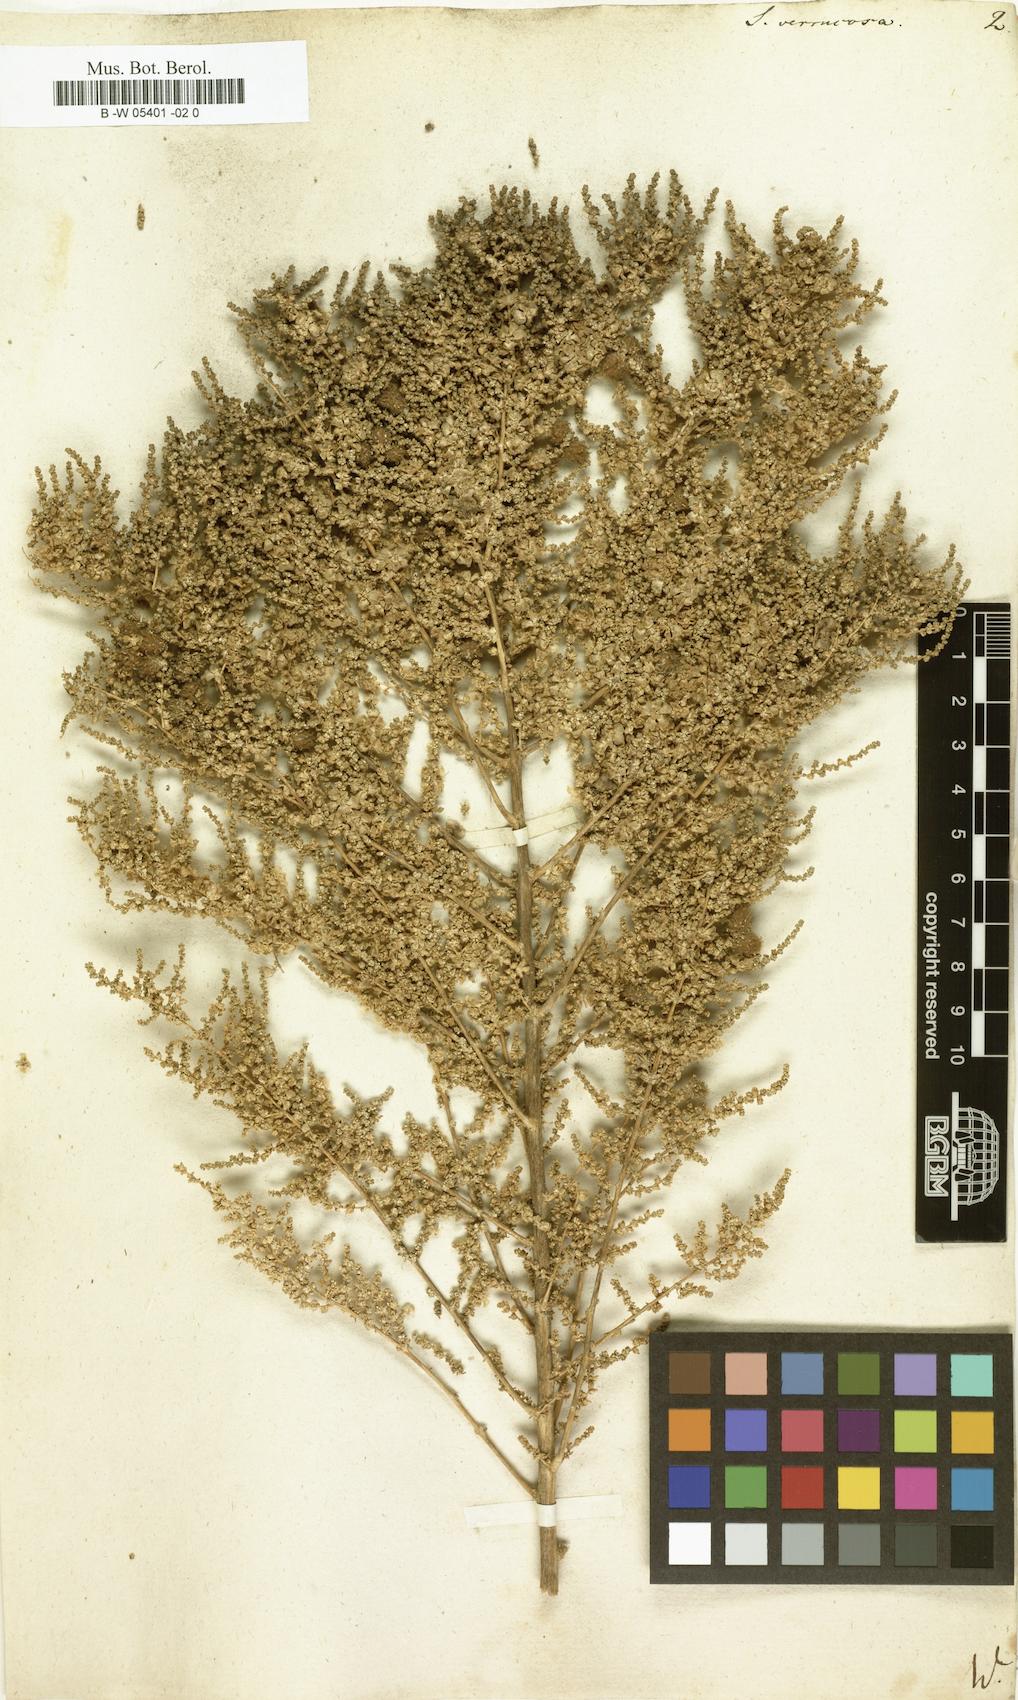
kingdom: Plantae
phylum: Tracheophyta
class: Magnoliopsida
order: Caryophyllales
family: Amaranthaceae
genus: Nitrosalsola
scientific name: Nitrosalsola dendroides
